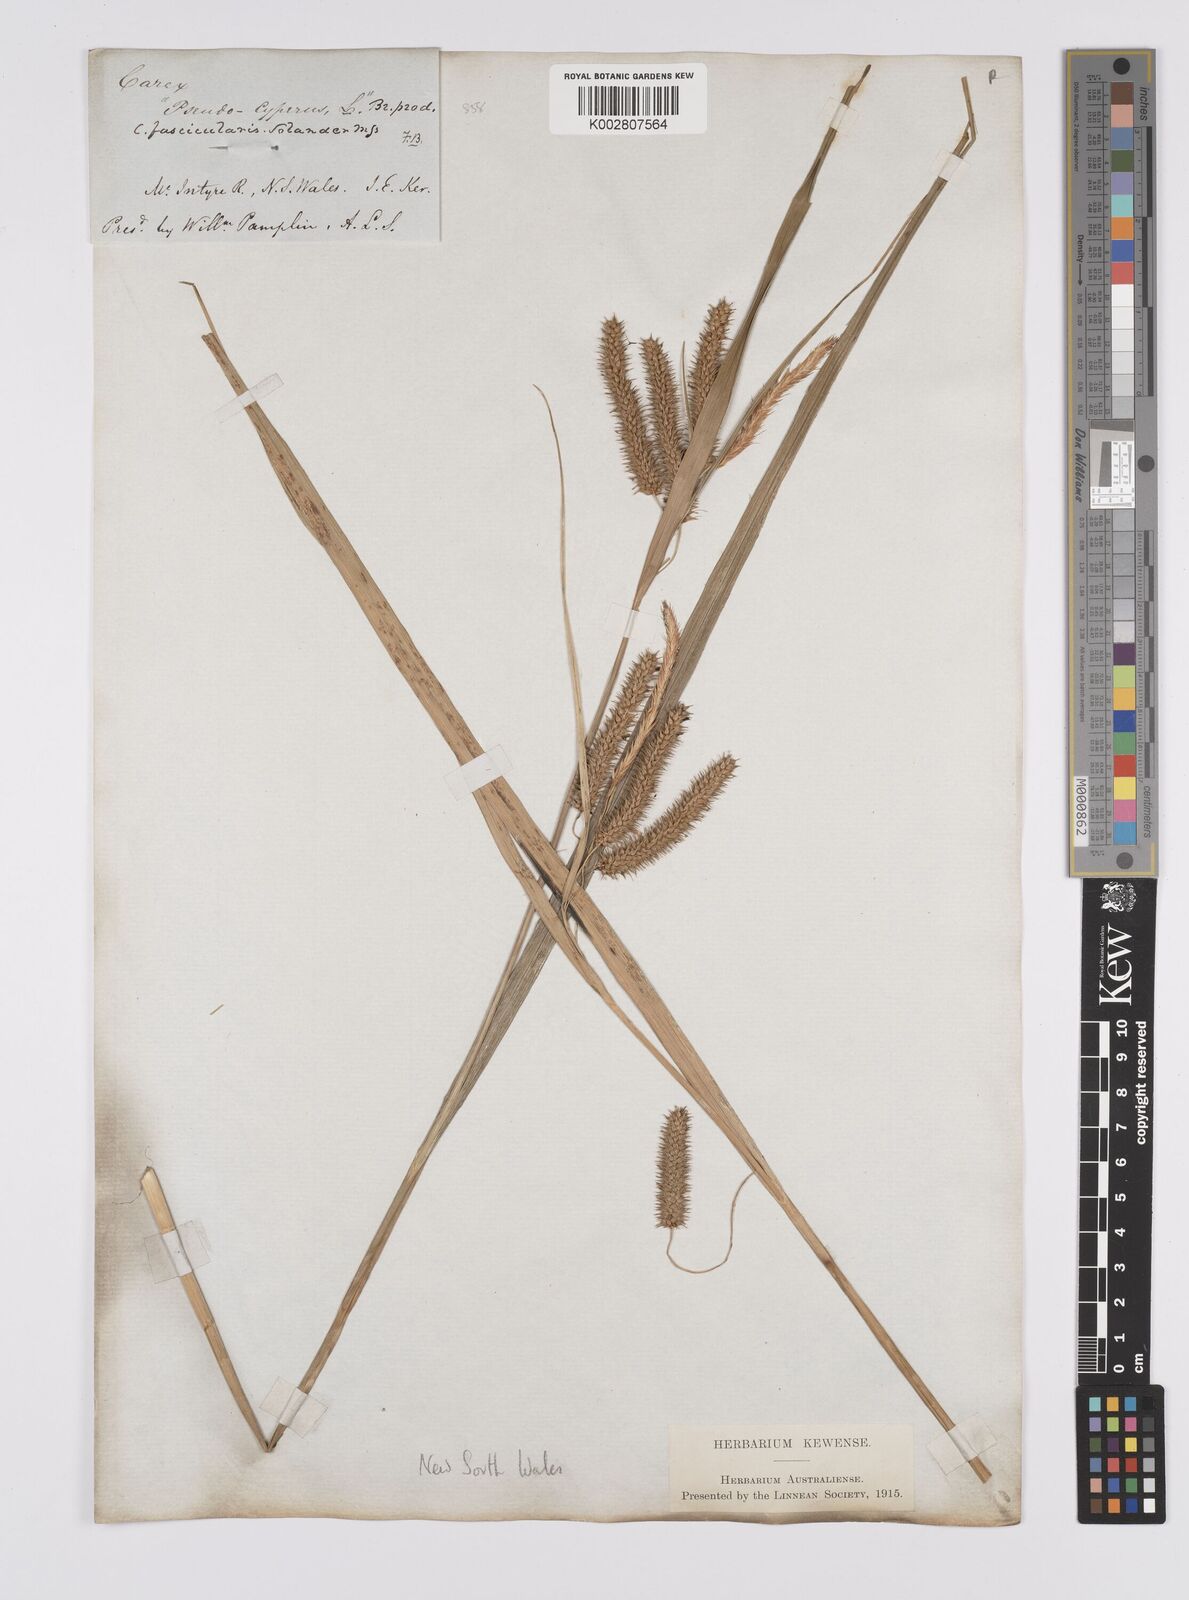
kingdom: Plantae
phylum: Tracheophyta
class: Liliopsida
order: Poales
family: Cyperaceae
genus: Carex
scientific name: Carex fascicularis
